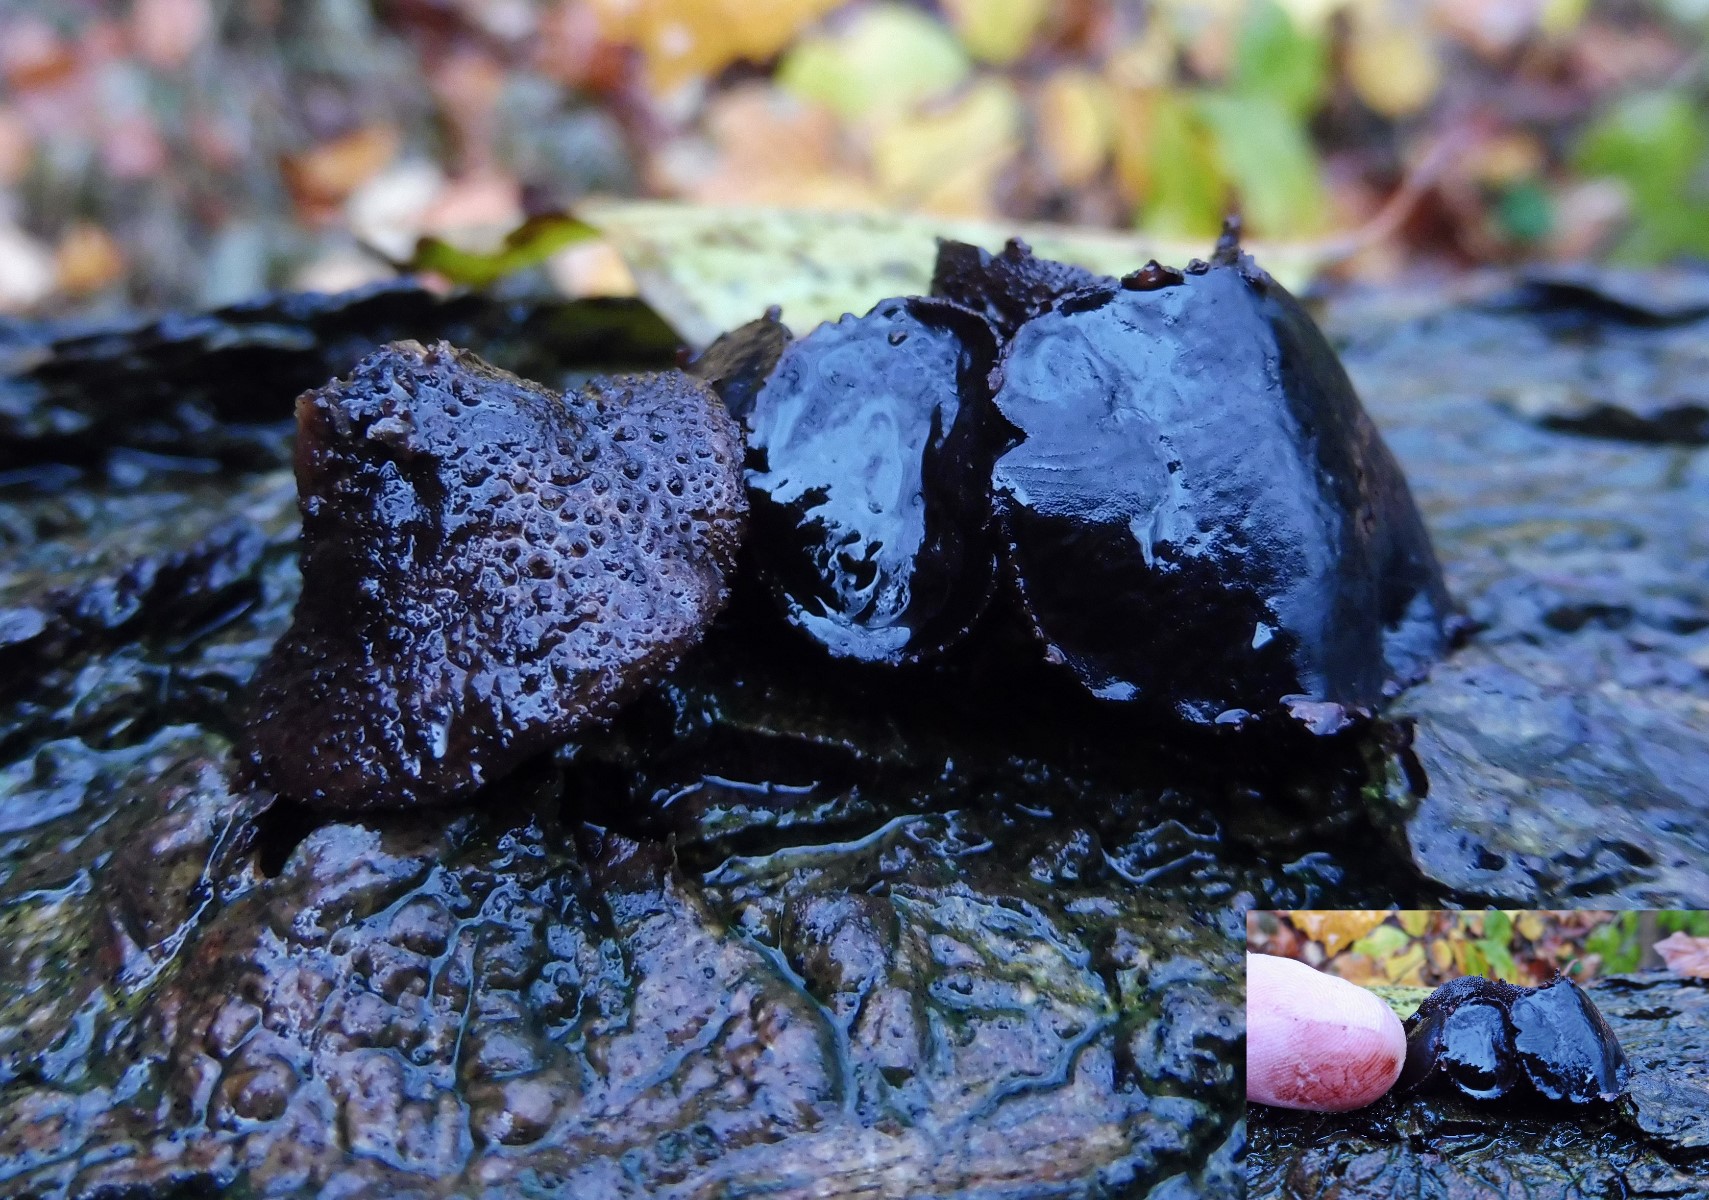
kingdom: Fungi
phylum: Ascomycota
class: Leotiomycetes
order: Phacidiales
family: Phacidiaceae
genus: Bulgaria
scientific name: Bulgaria inquinans
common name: afsmittende topsvamp
